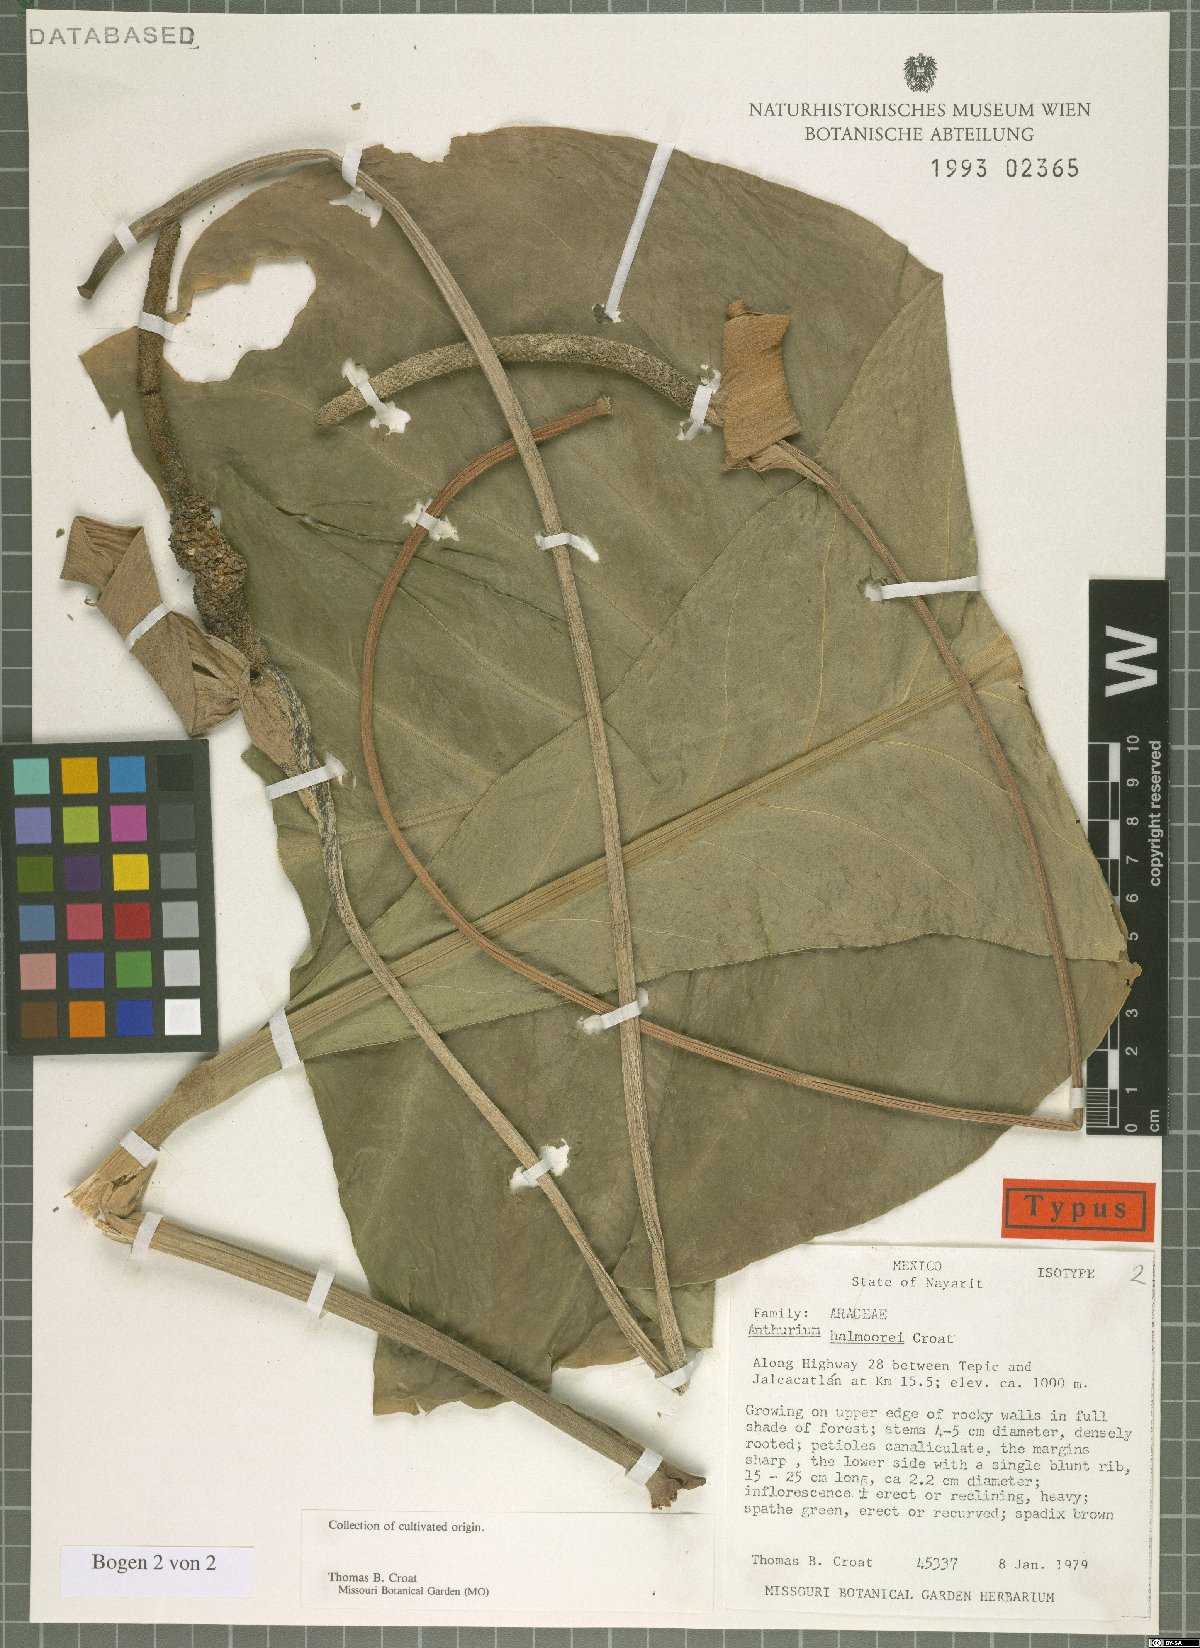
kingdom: Plantae
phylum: Tracheophyta
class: Liliopsida
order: Alismatales
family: Araceae
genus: Anthurium
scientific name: Anthurium halmoorei
